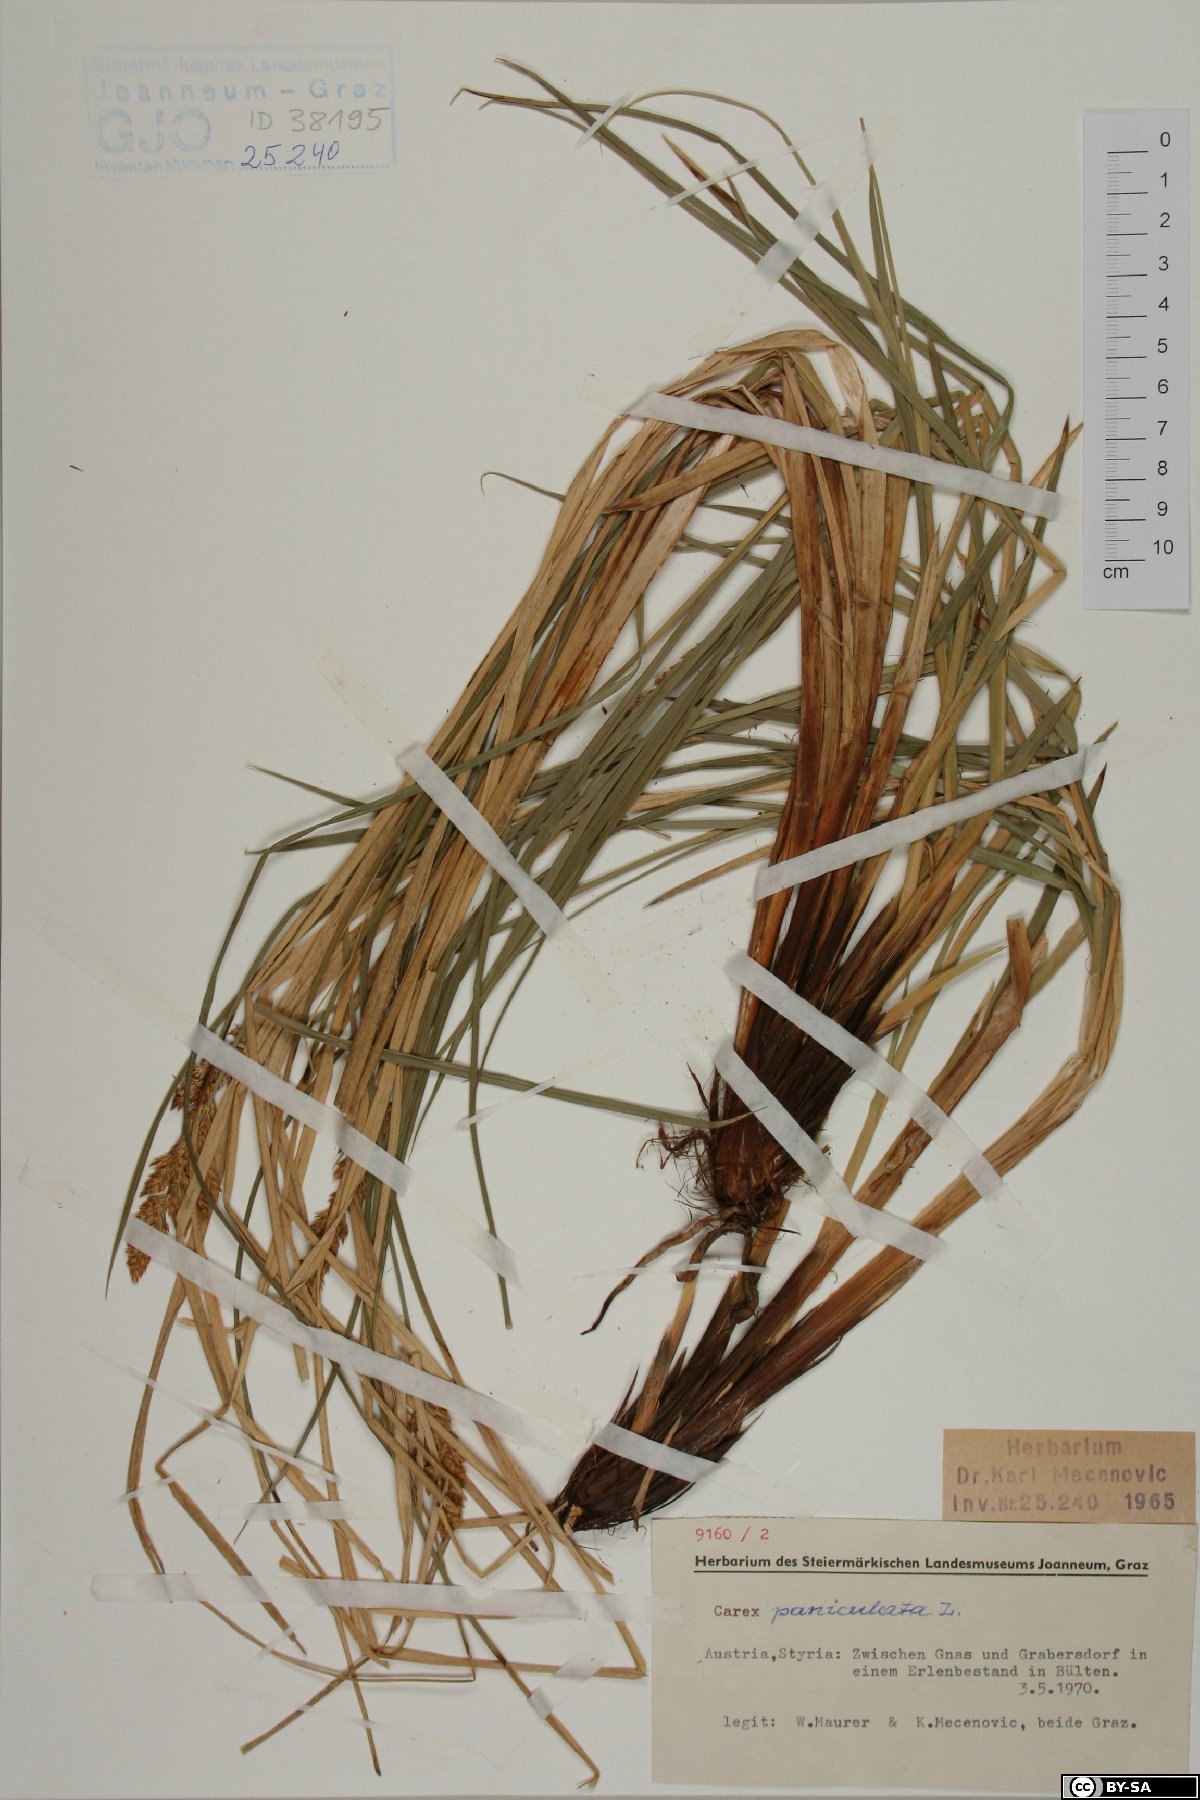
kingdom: Plantae
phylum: Tracheophyta
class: Liliopsida
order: Poales
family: Cyperaceae
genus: Carex
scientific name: Carex paniculata
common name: Greater tussock-sedge
